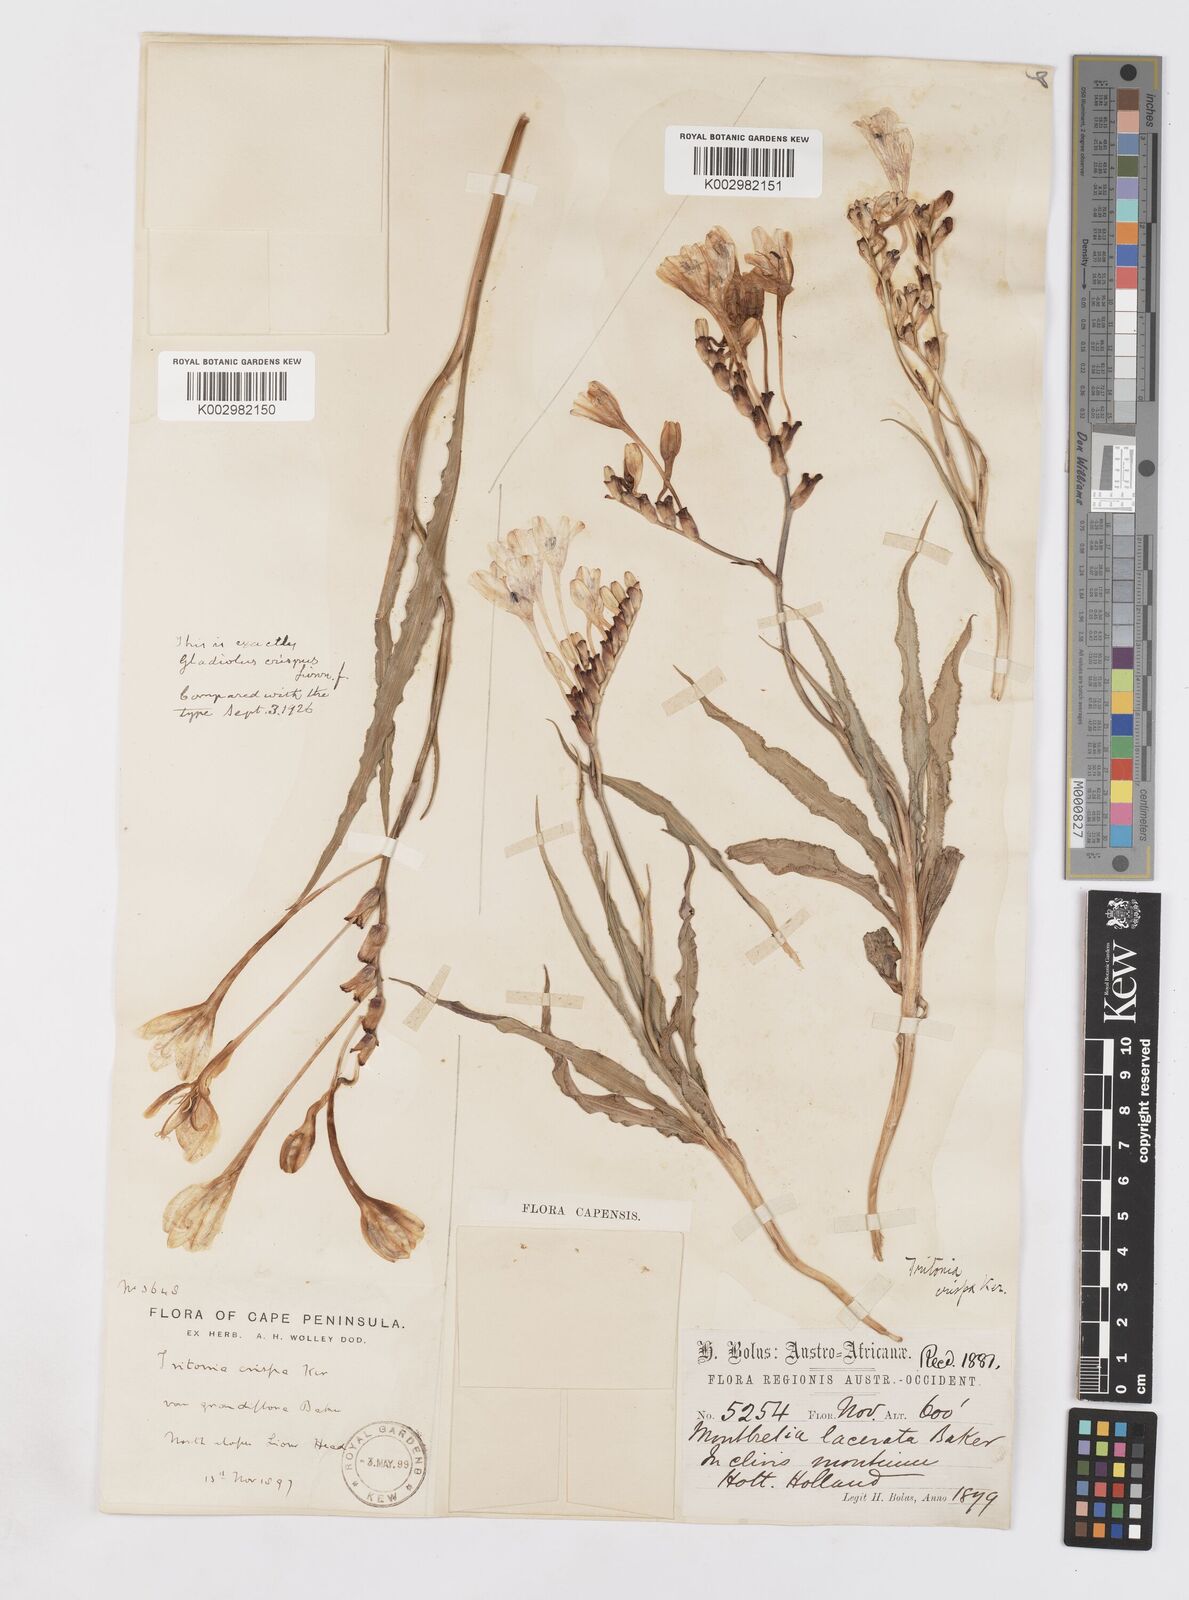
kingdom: Plantae
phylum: Tracheophyta
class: Liliopsida
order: Asparagales
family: Iridaceae
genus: Tritonia
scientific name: Tritonia undulata
